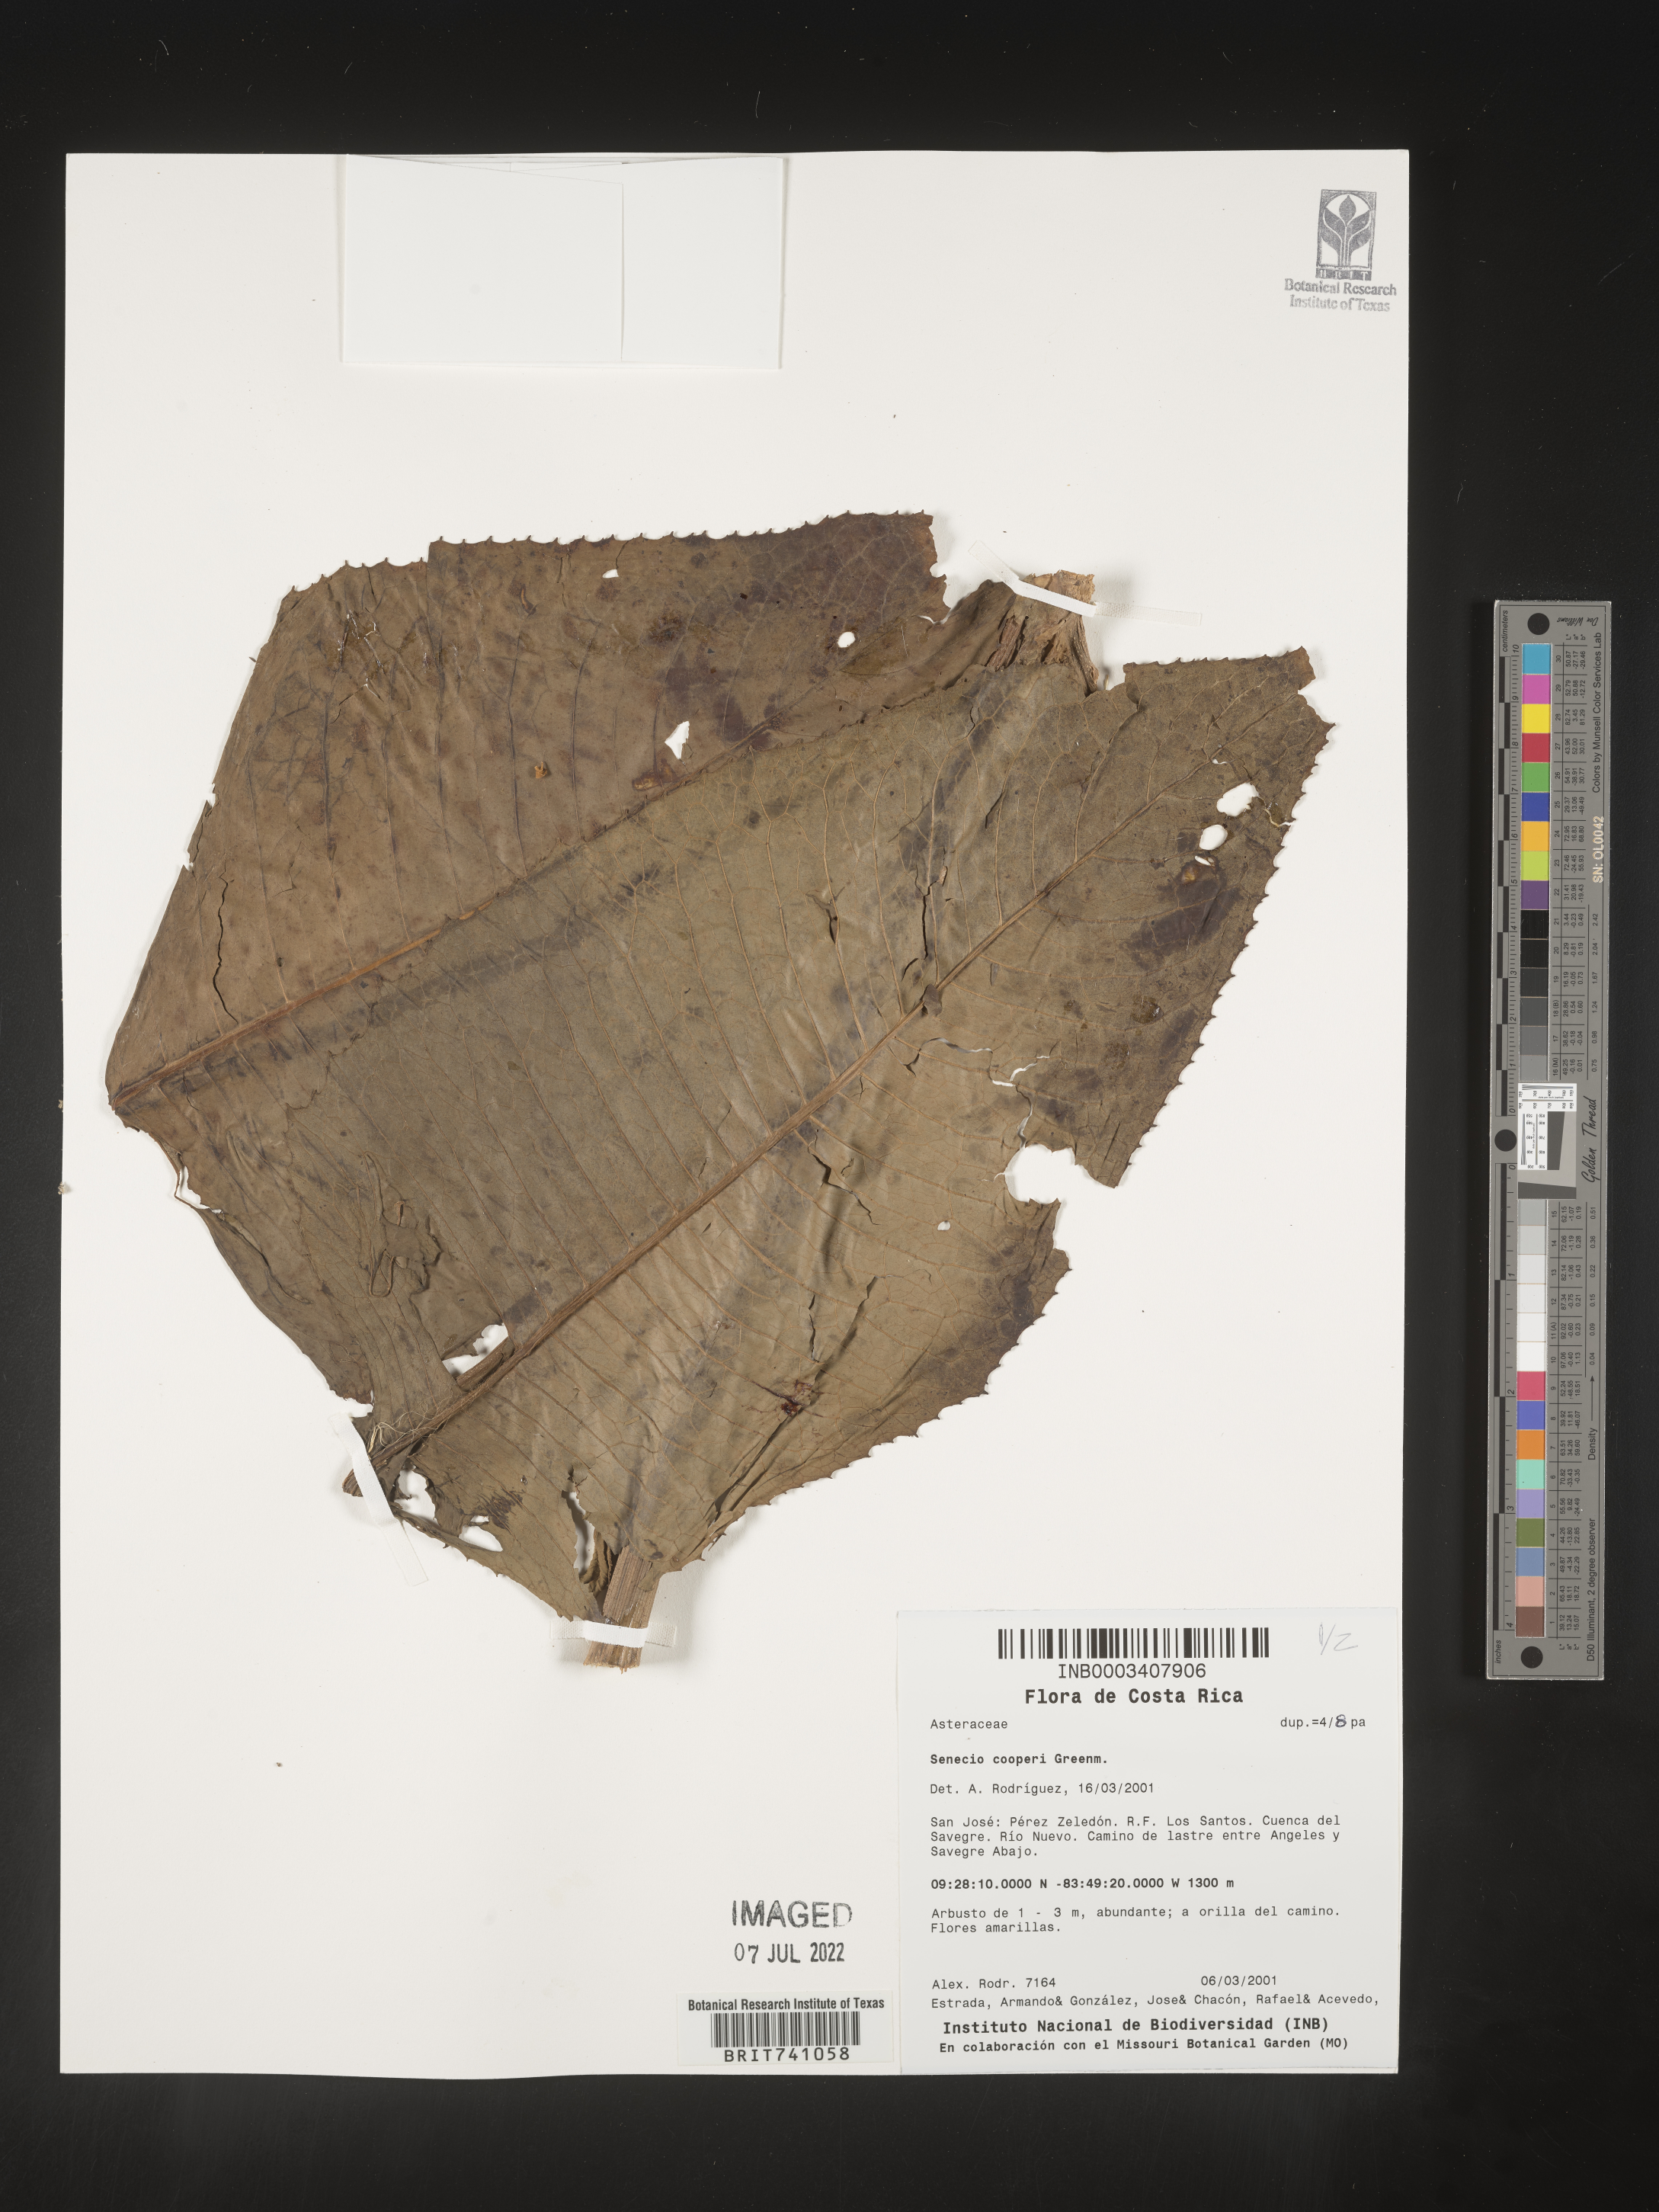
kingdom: Plantae
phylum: Tracheophyta
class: Magnoliopsida
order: Asterales
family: Asteraceae
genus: Senecio
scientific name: Senecio
